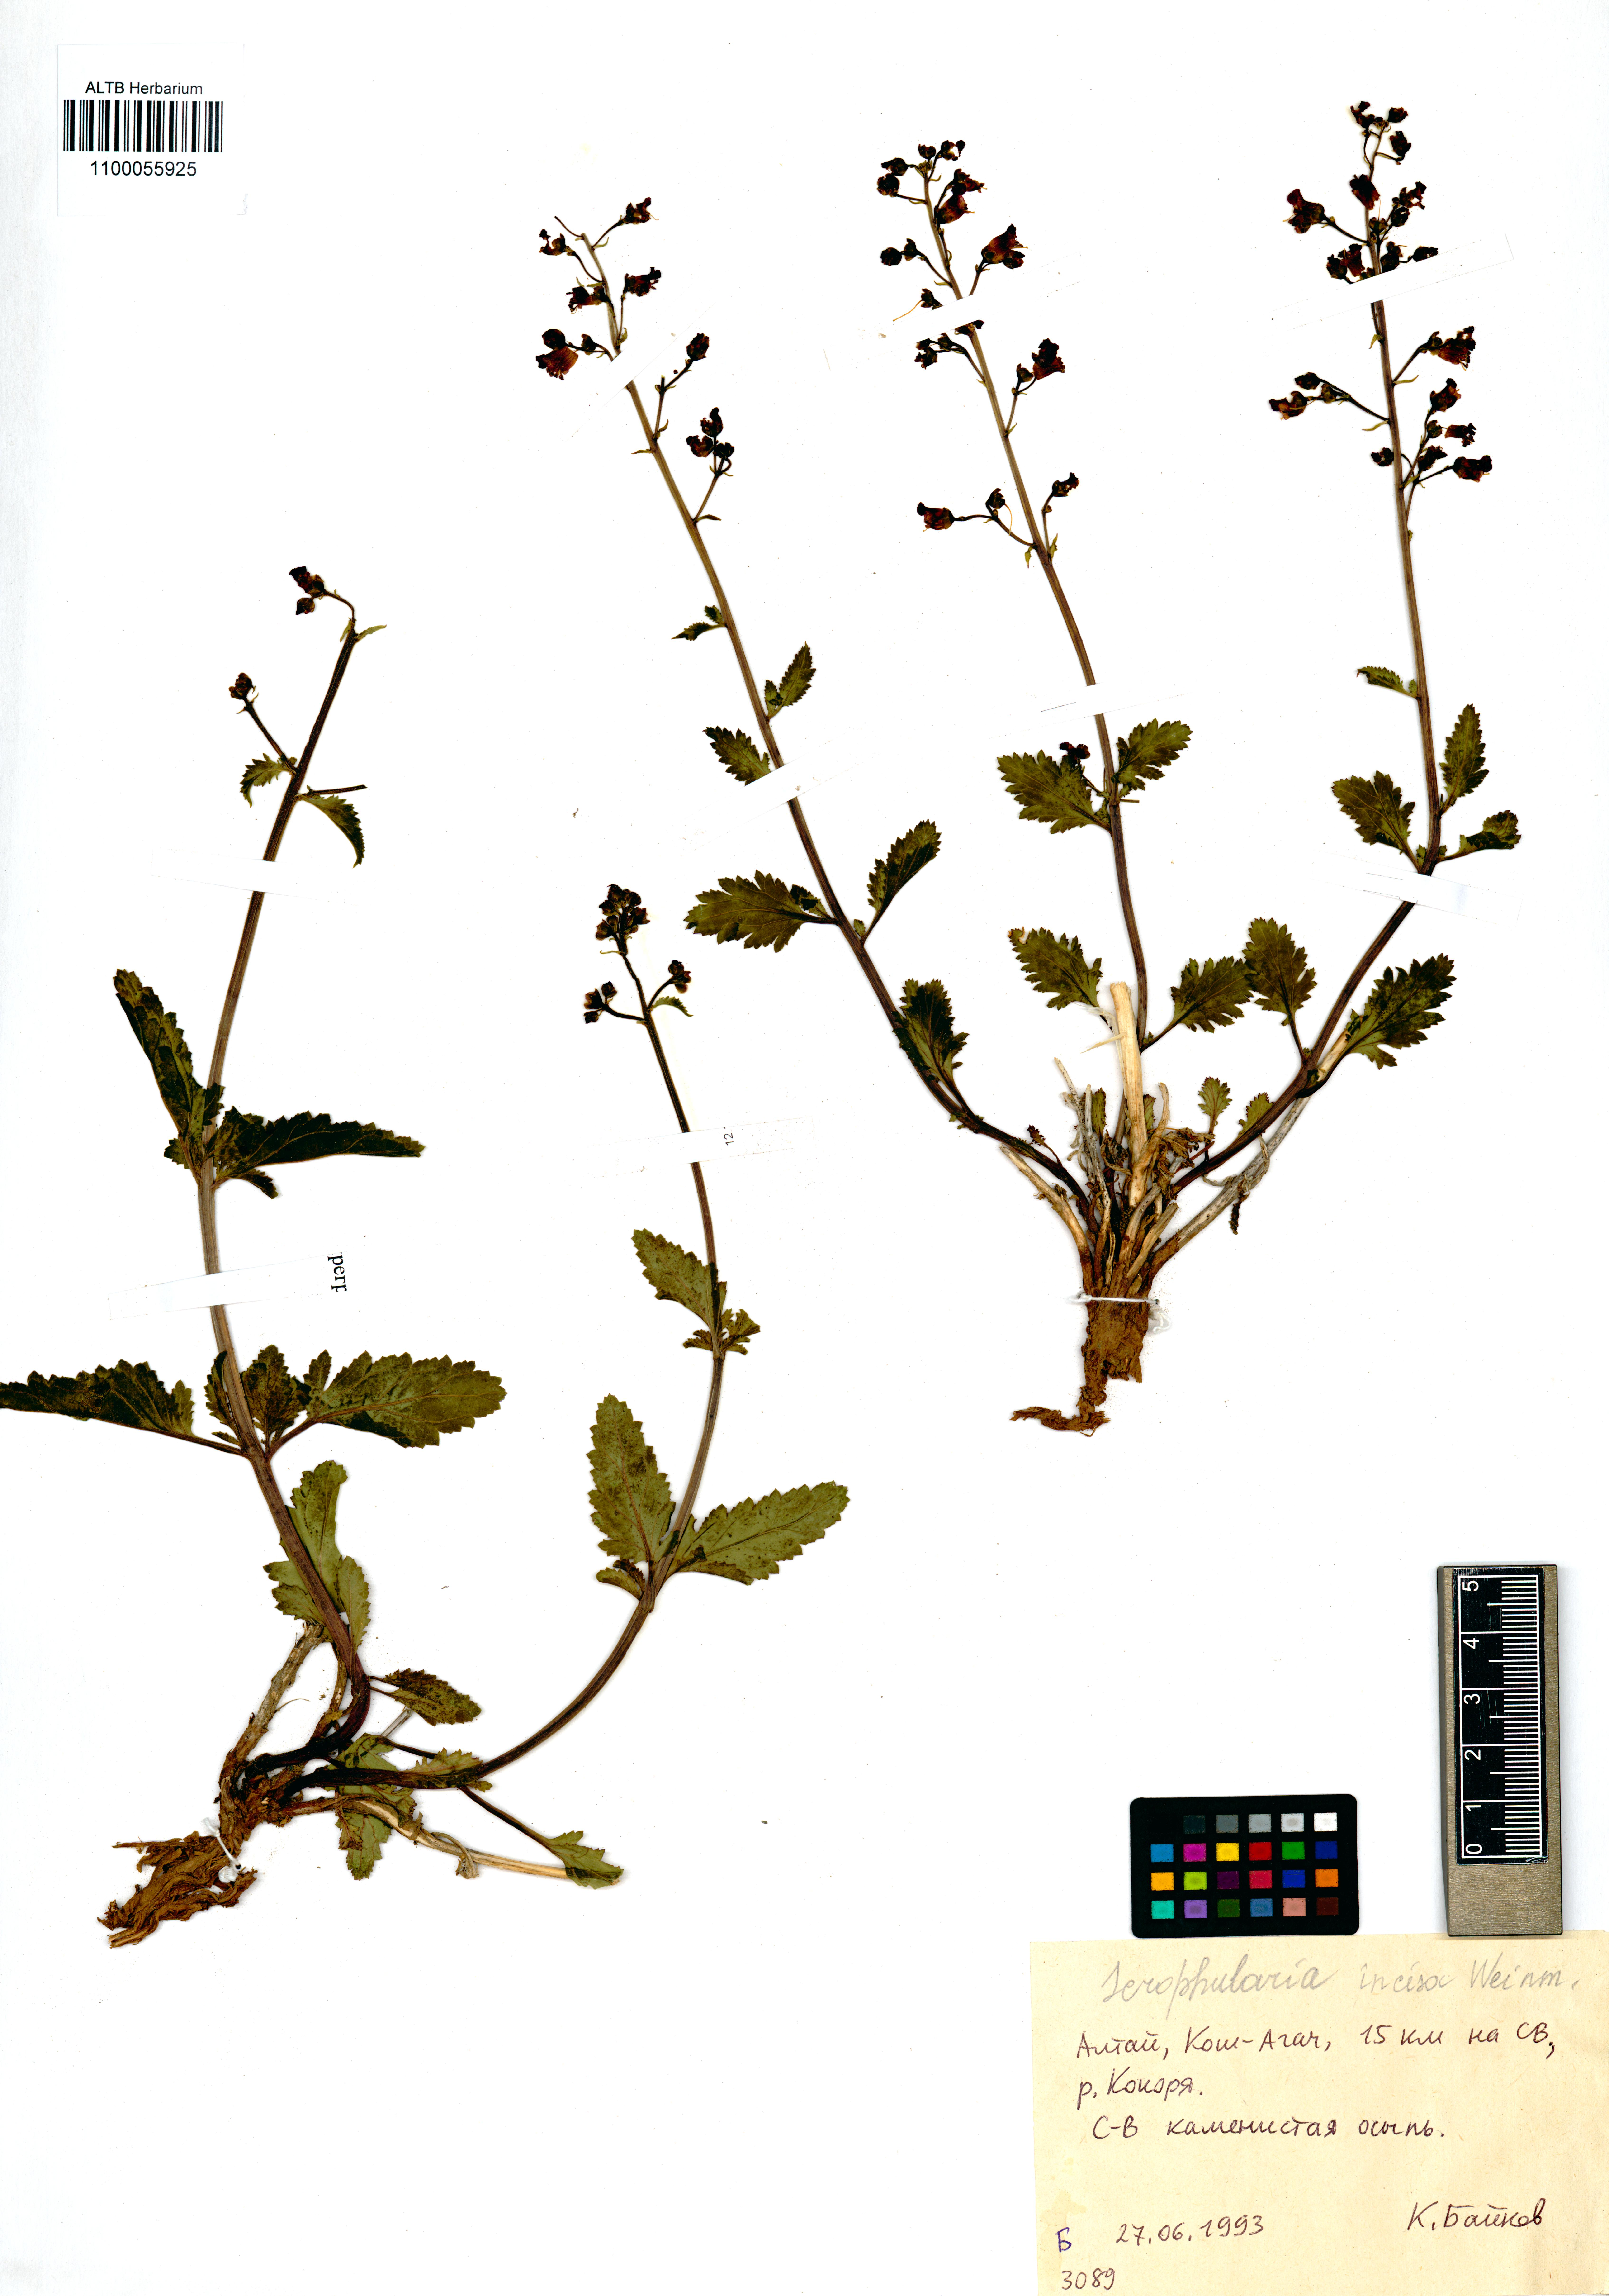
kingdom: Plantae
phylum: Tracheophyta
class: Magnoliopsida
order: Lamiales
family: Scrophulariaceae
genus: Scrophularia
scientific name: Scrophularia incisa
